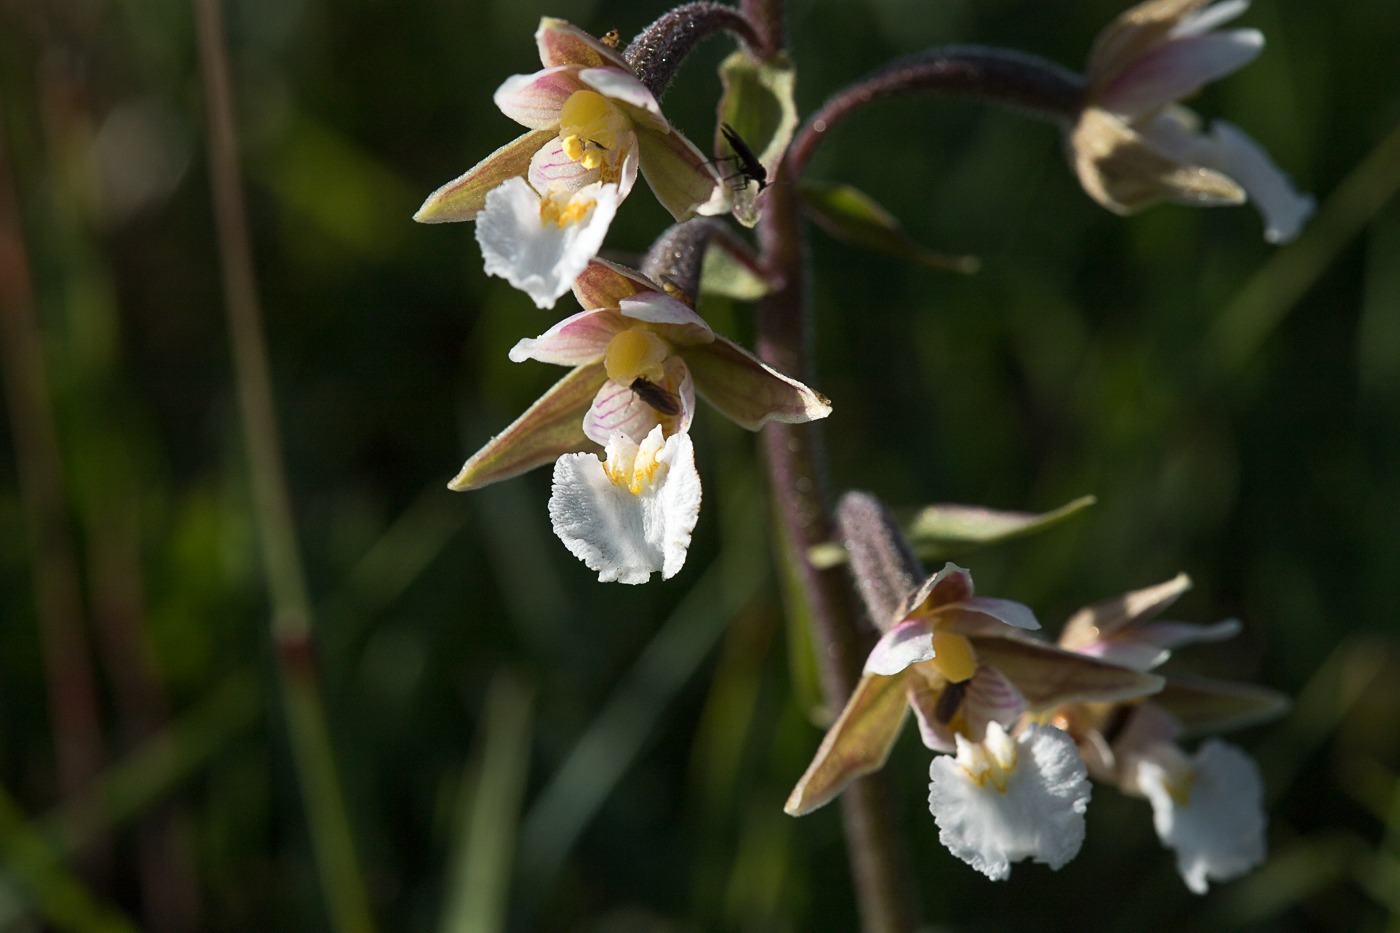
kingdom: Plantae
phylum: Tracheophyta
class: Liliopsida
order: Asparagales
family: Orchidaceae
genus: Epipactis
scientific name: Epipactis palustris
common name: Sump-hullæbe
